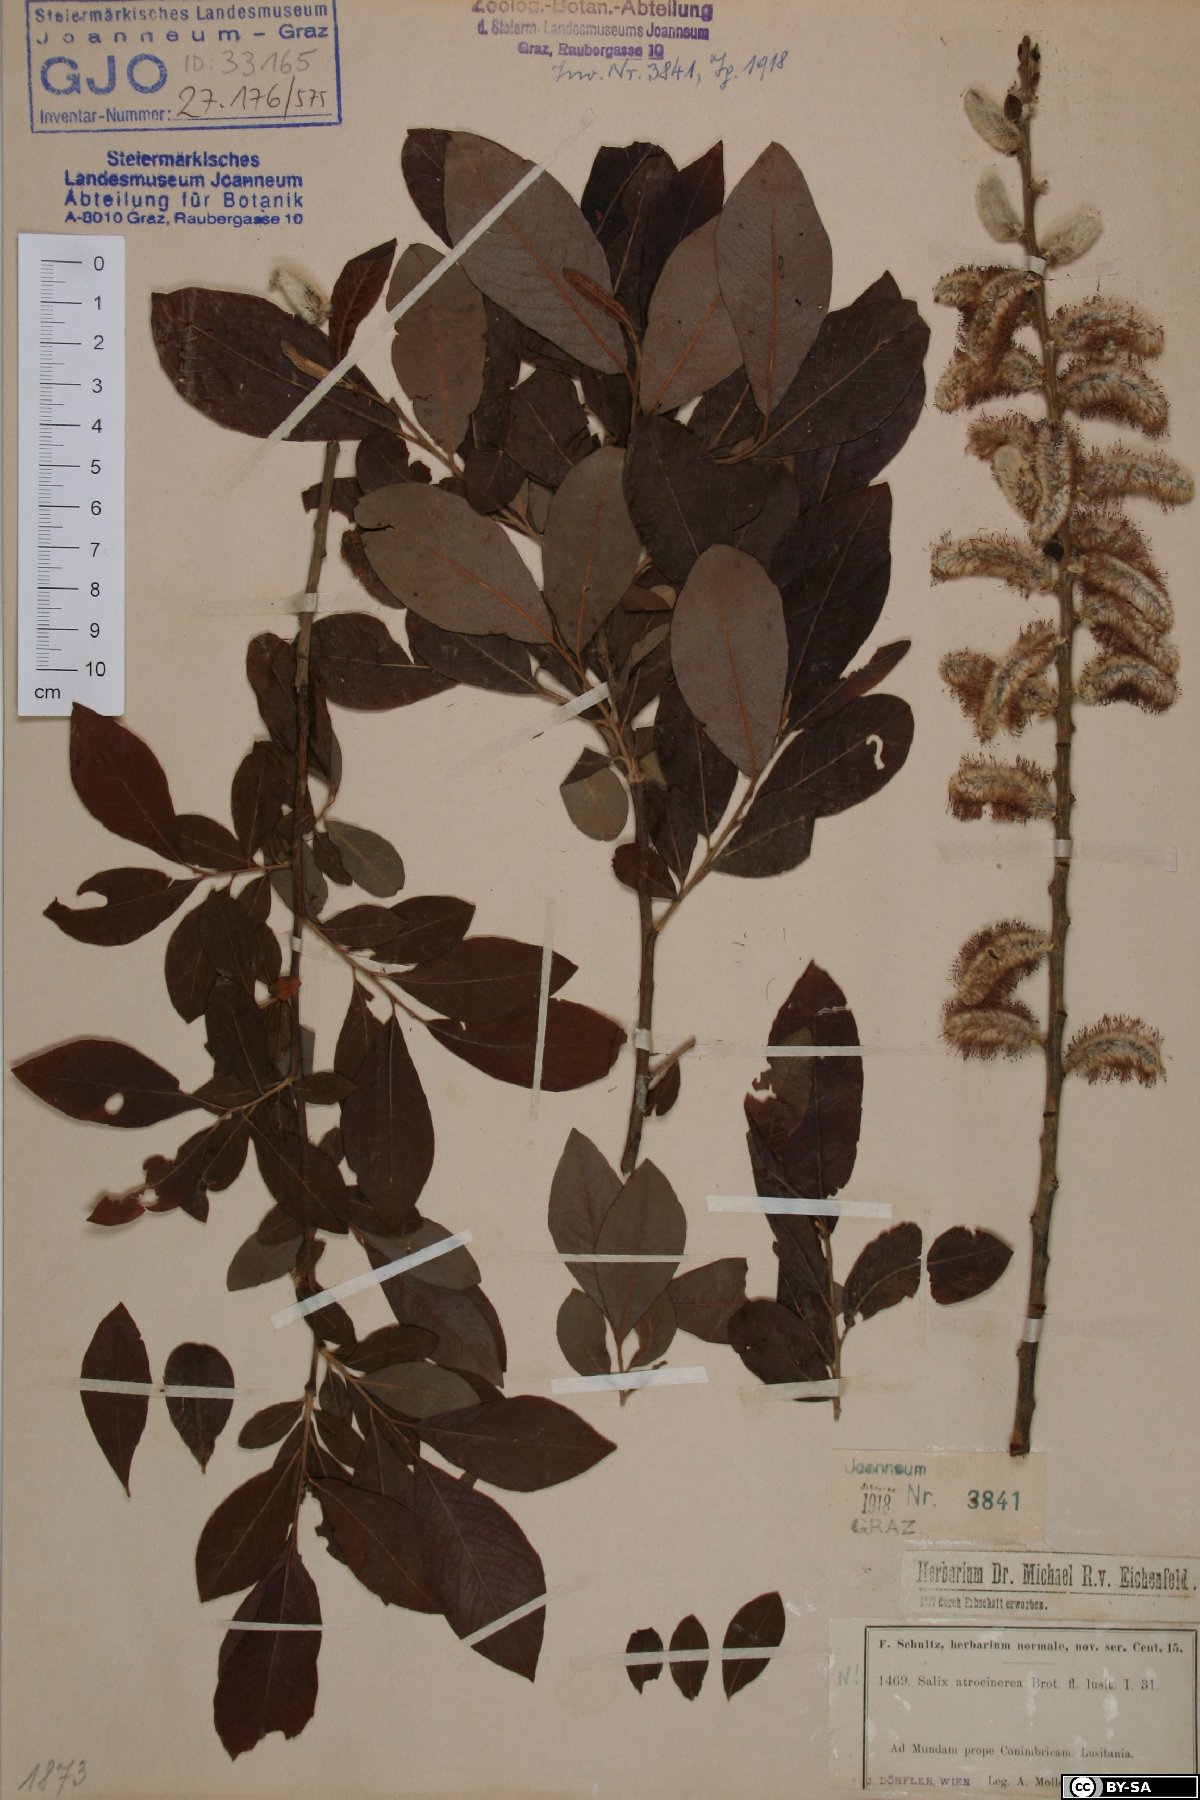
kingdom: Plantae
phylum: Tracheophyta
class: Magnoliopsida
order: Malpighiales
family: Salicaceae
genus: Salix
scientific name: Salix atrocinerea
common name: Rusty willow
